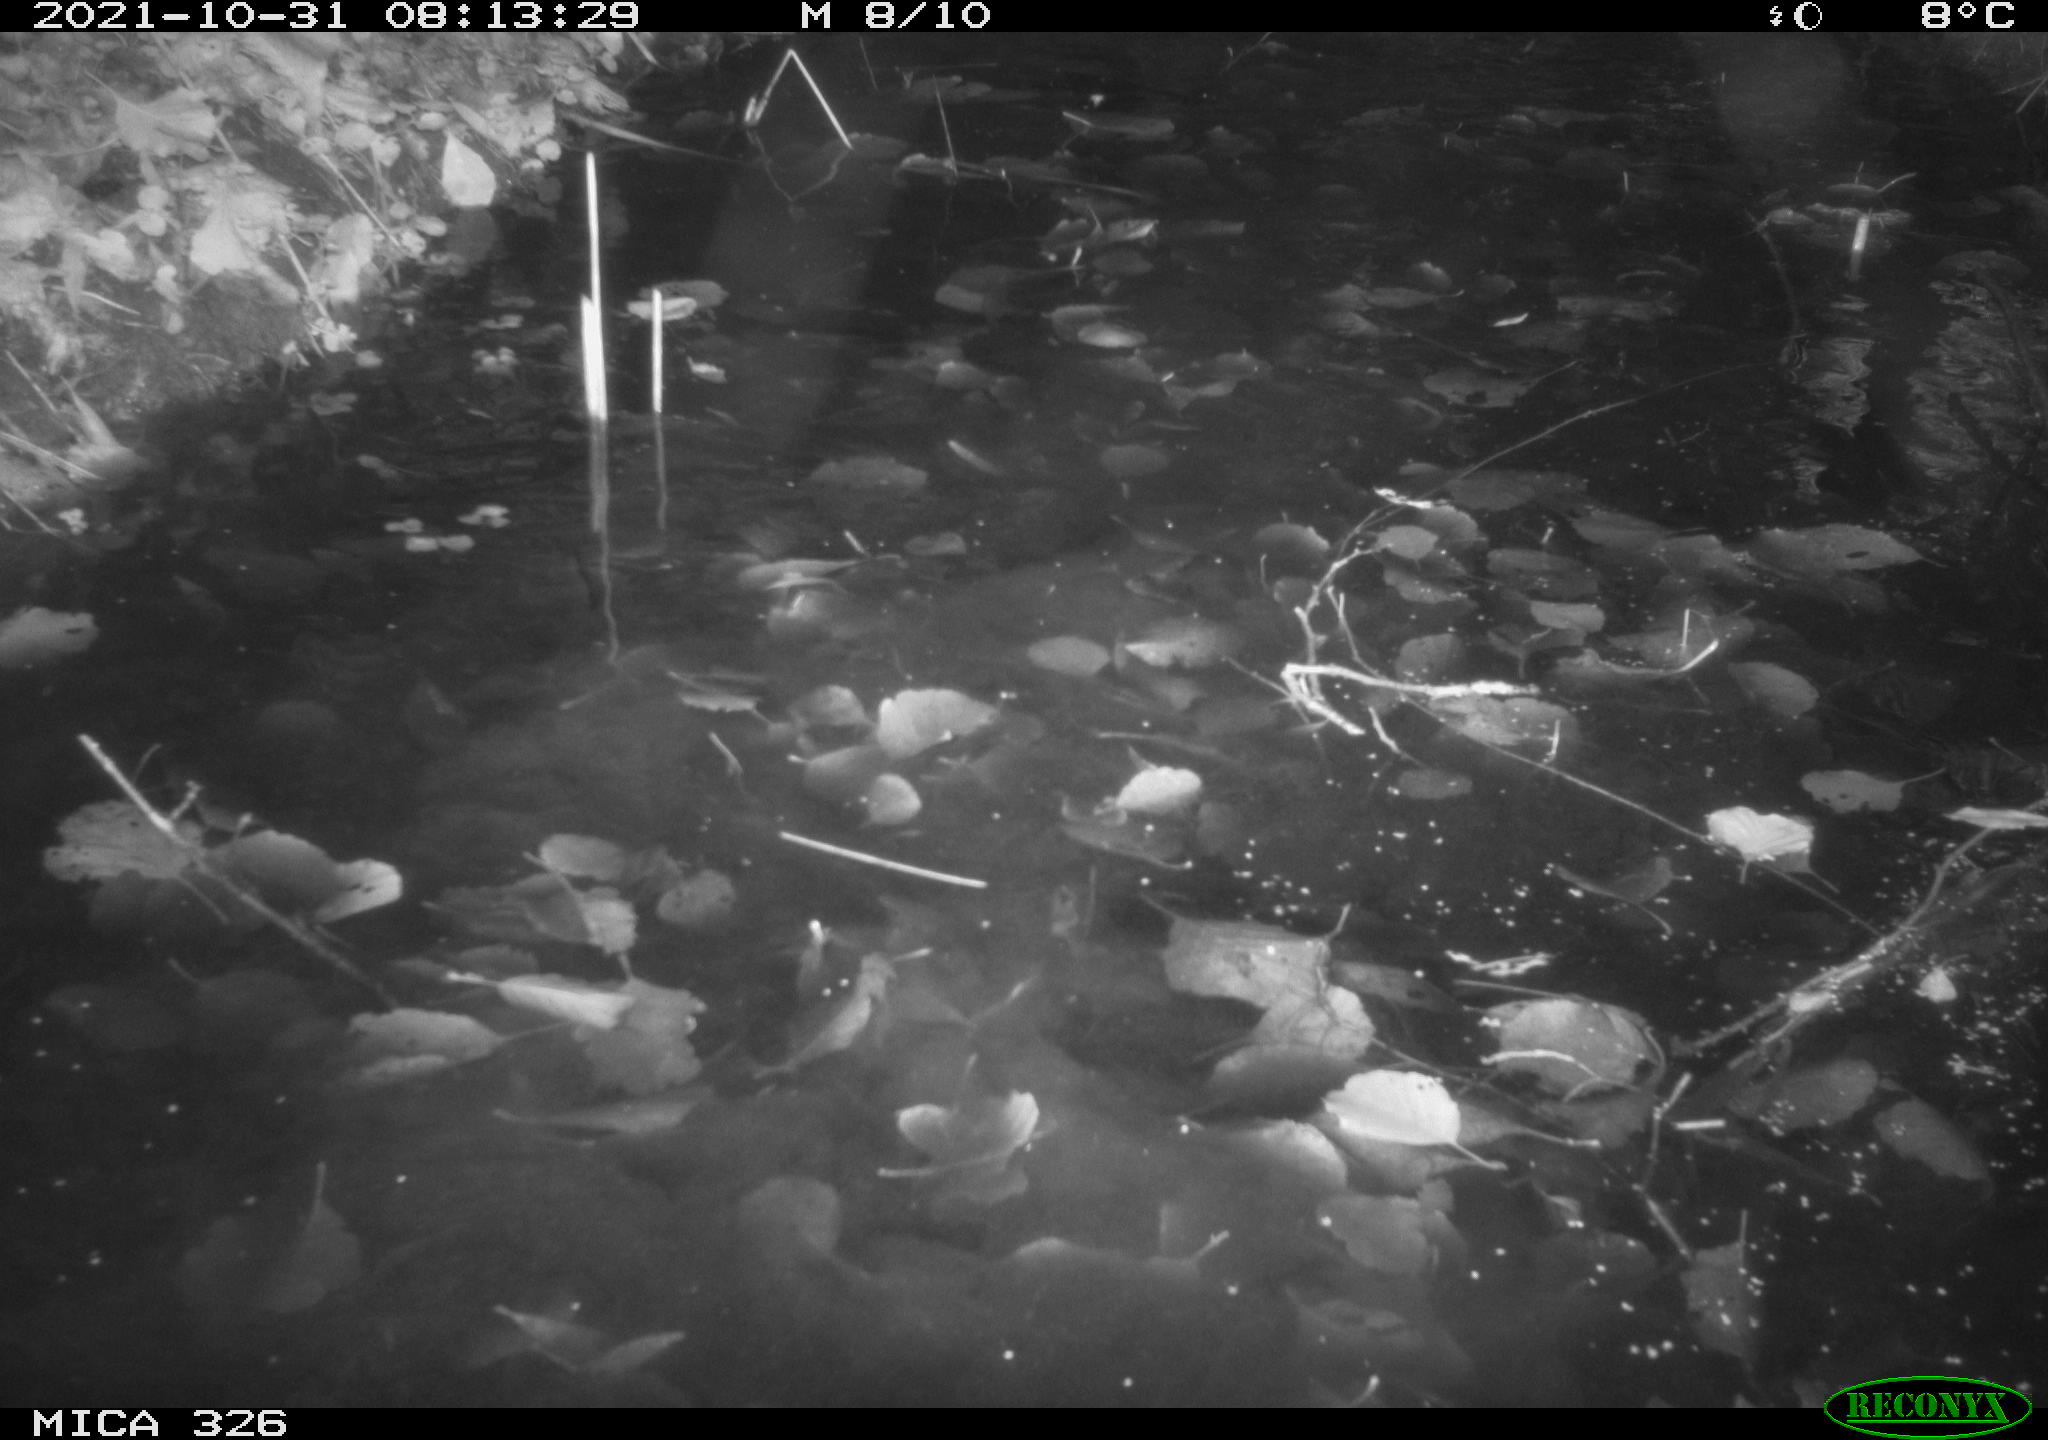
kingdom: Animalia
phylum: Chordata
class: Mammalia
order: Rodentia
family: Myocastoridae
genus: Myocastor
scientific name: Myocastor coypus
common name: Coypu
